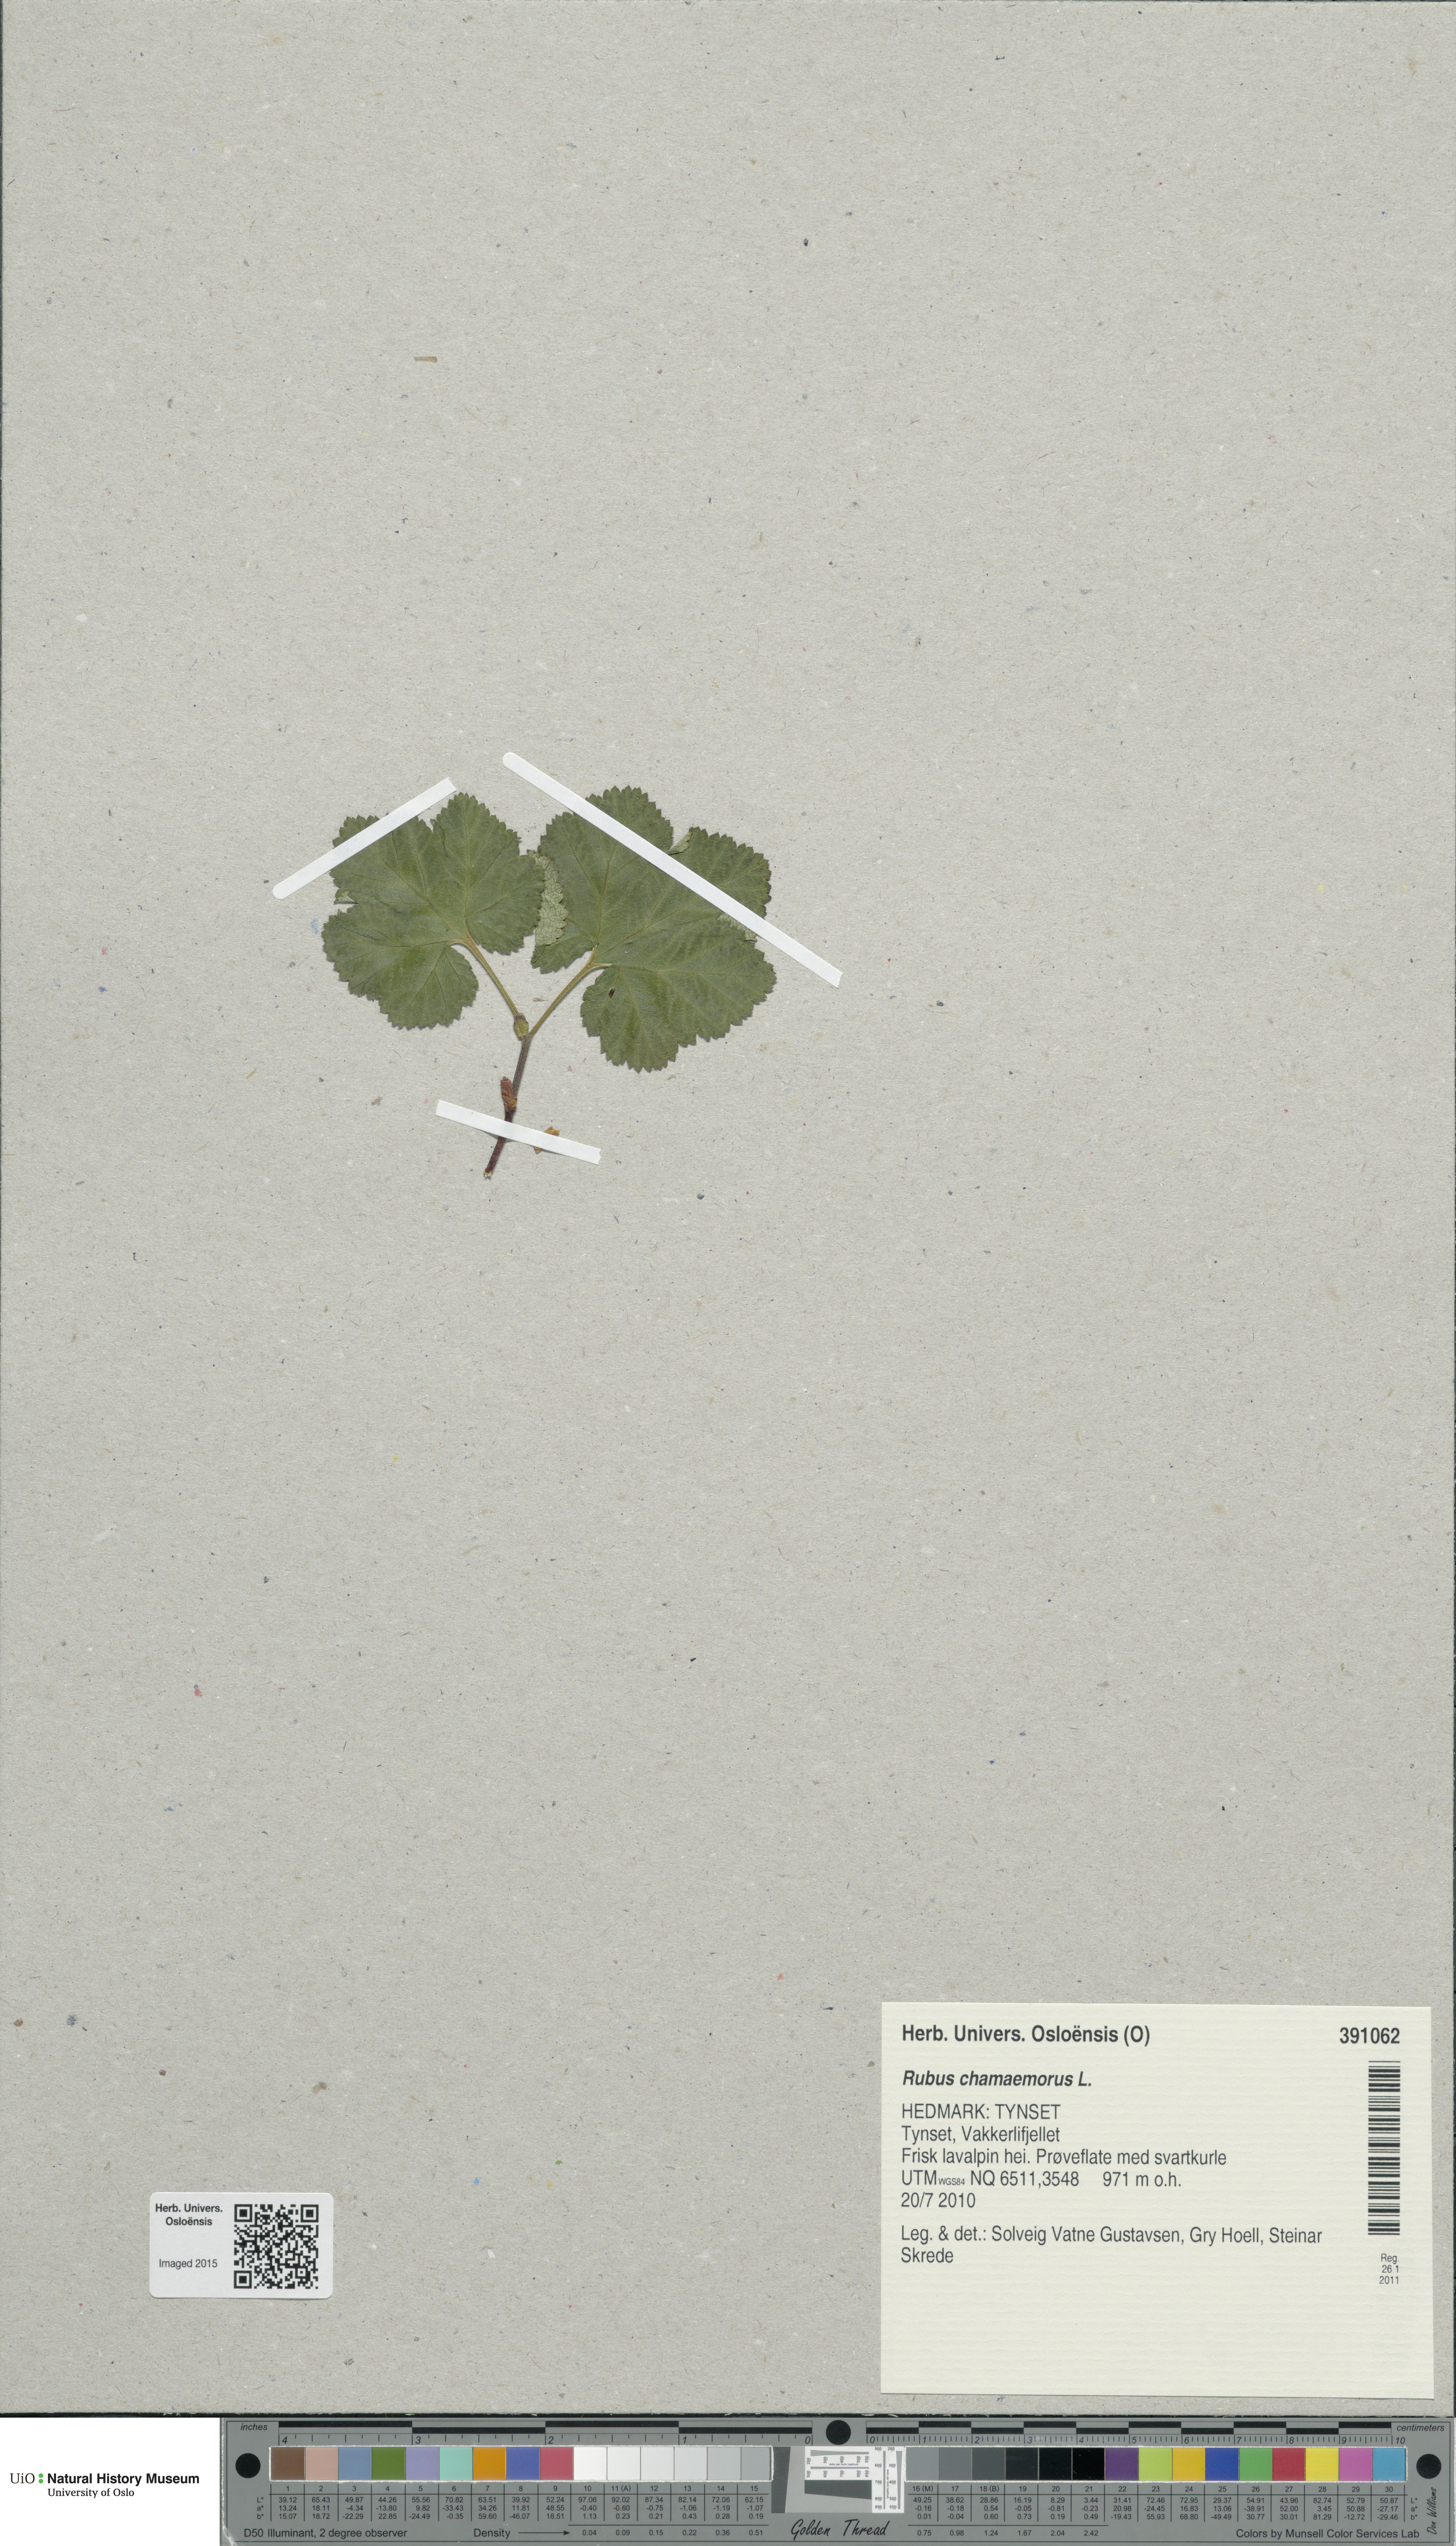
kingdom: Plantae
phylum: Tracheophyta
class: Magnoliopsida
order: Rosales
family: Rosaceae
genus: Rubus
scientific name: Rubus chamaemorus
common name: Cloudberry
